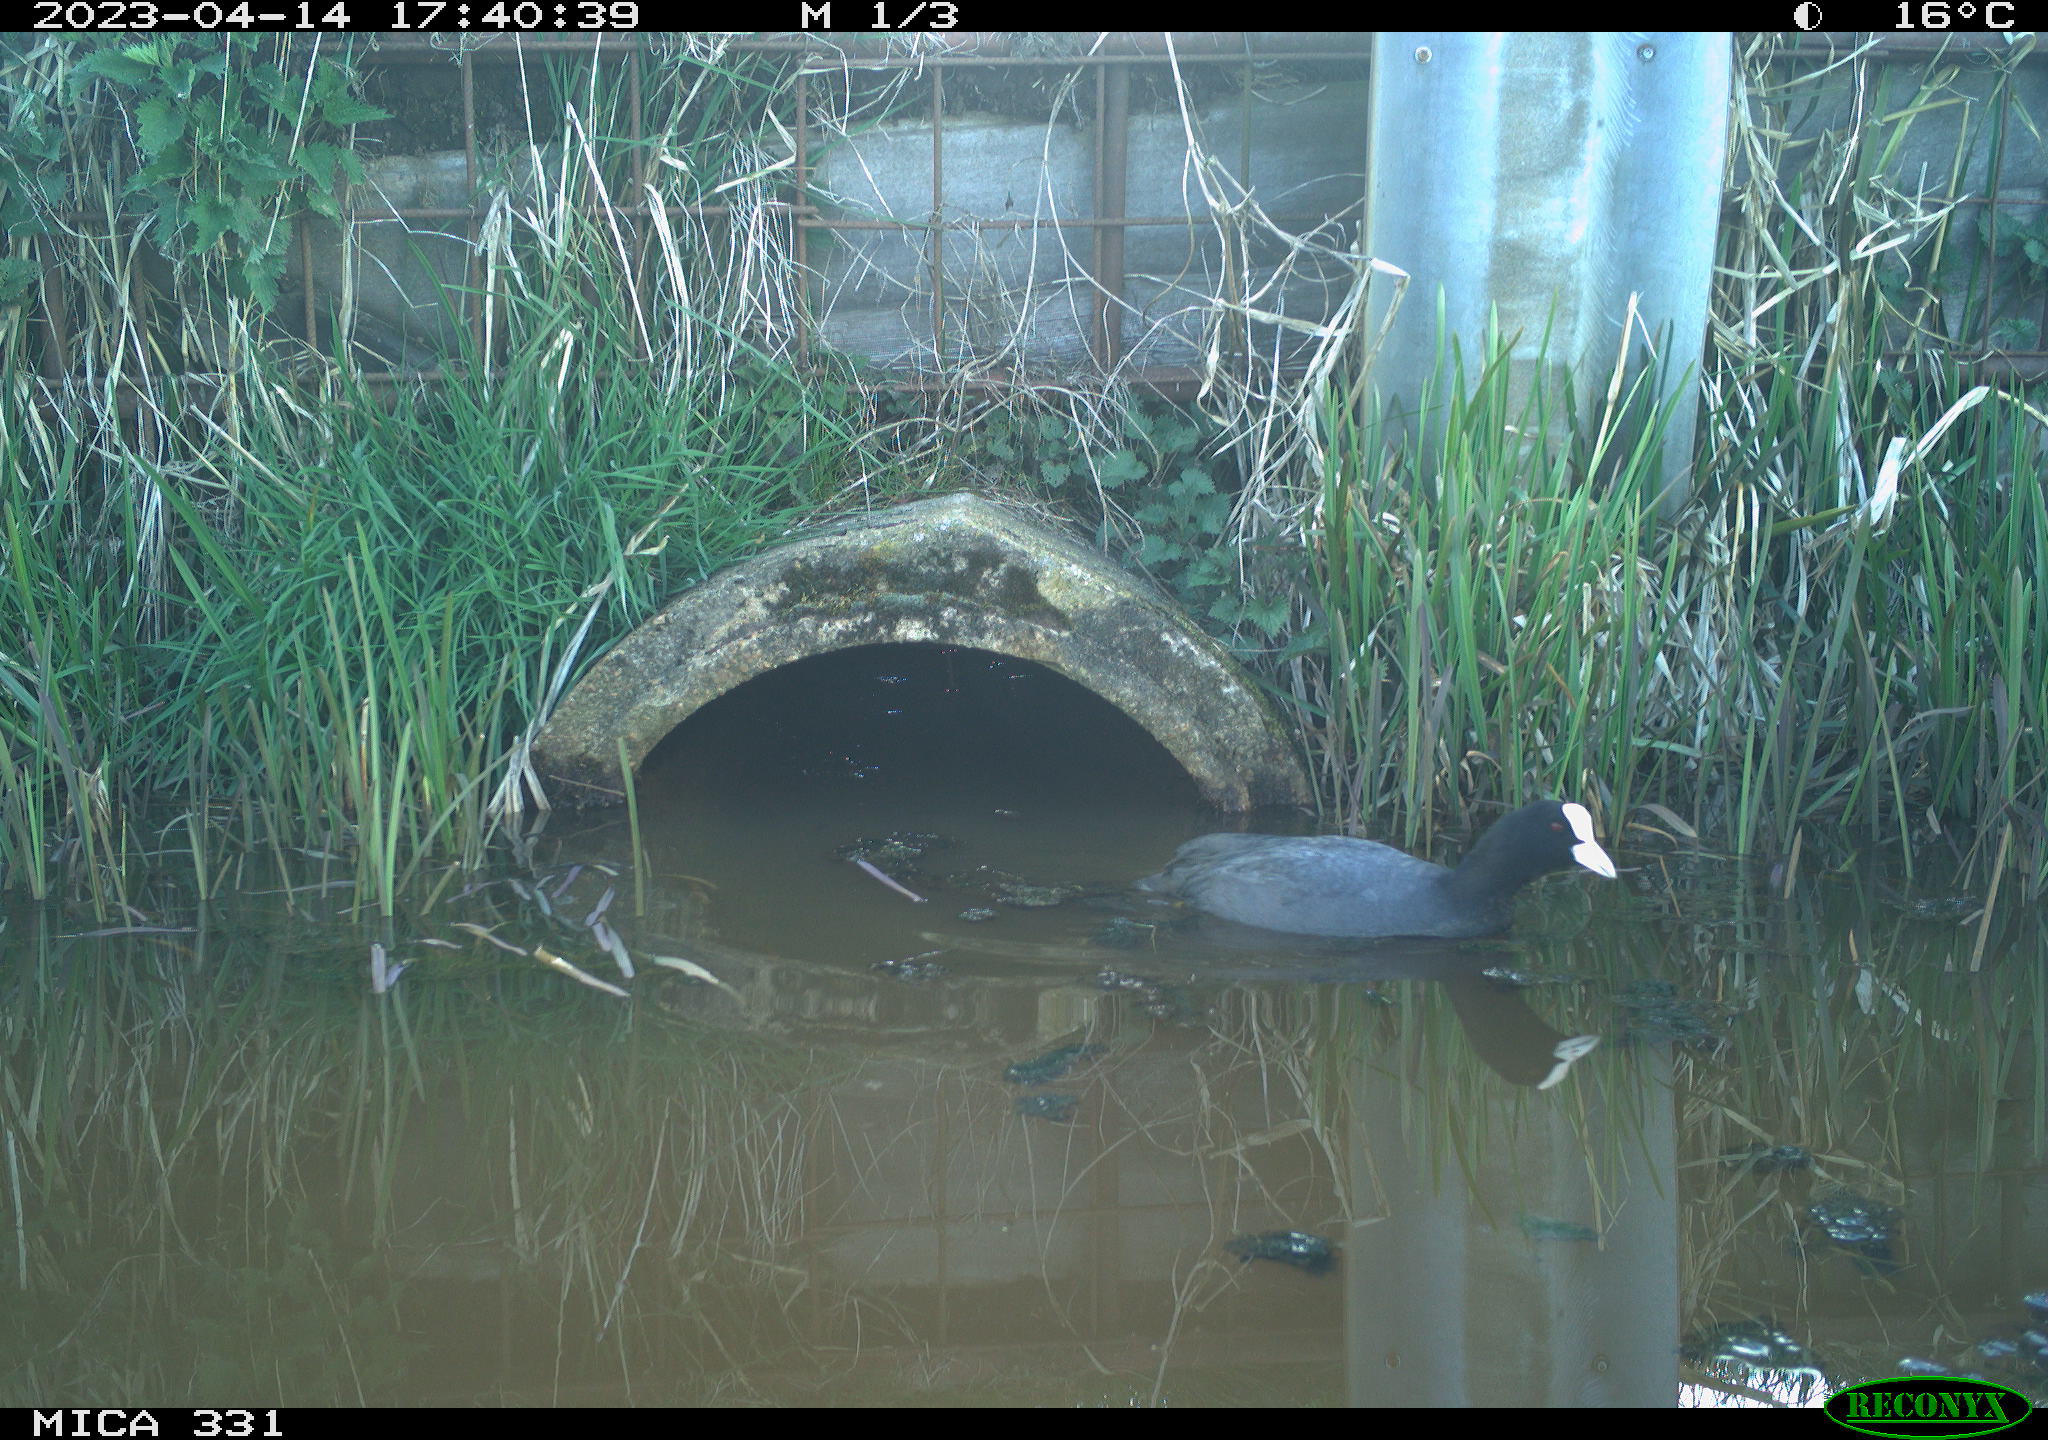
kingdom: Animalia
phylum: Chordata
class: Aves
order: Gruiformes
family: Rallidae
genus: Fulica
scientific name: Fulica atra
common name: Eurasian coot
